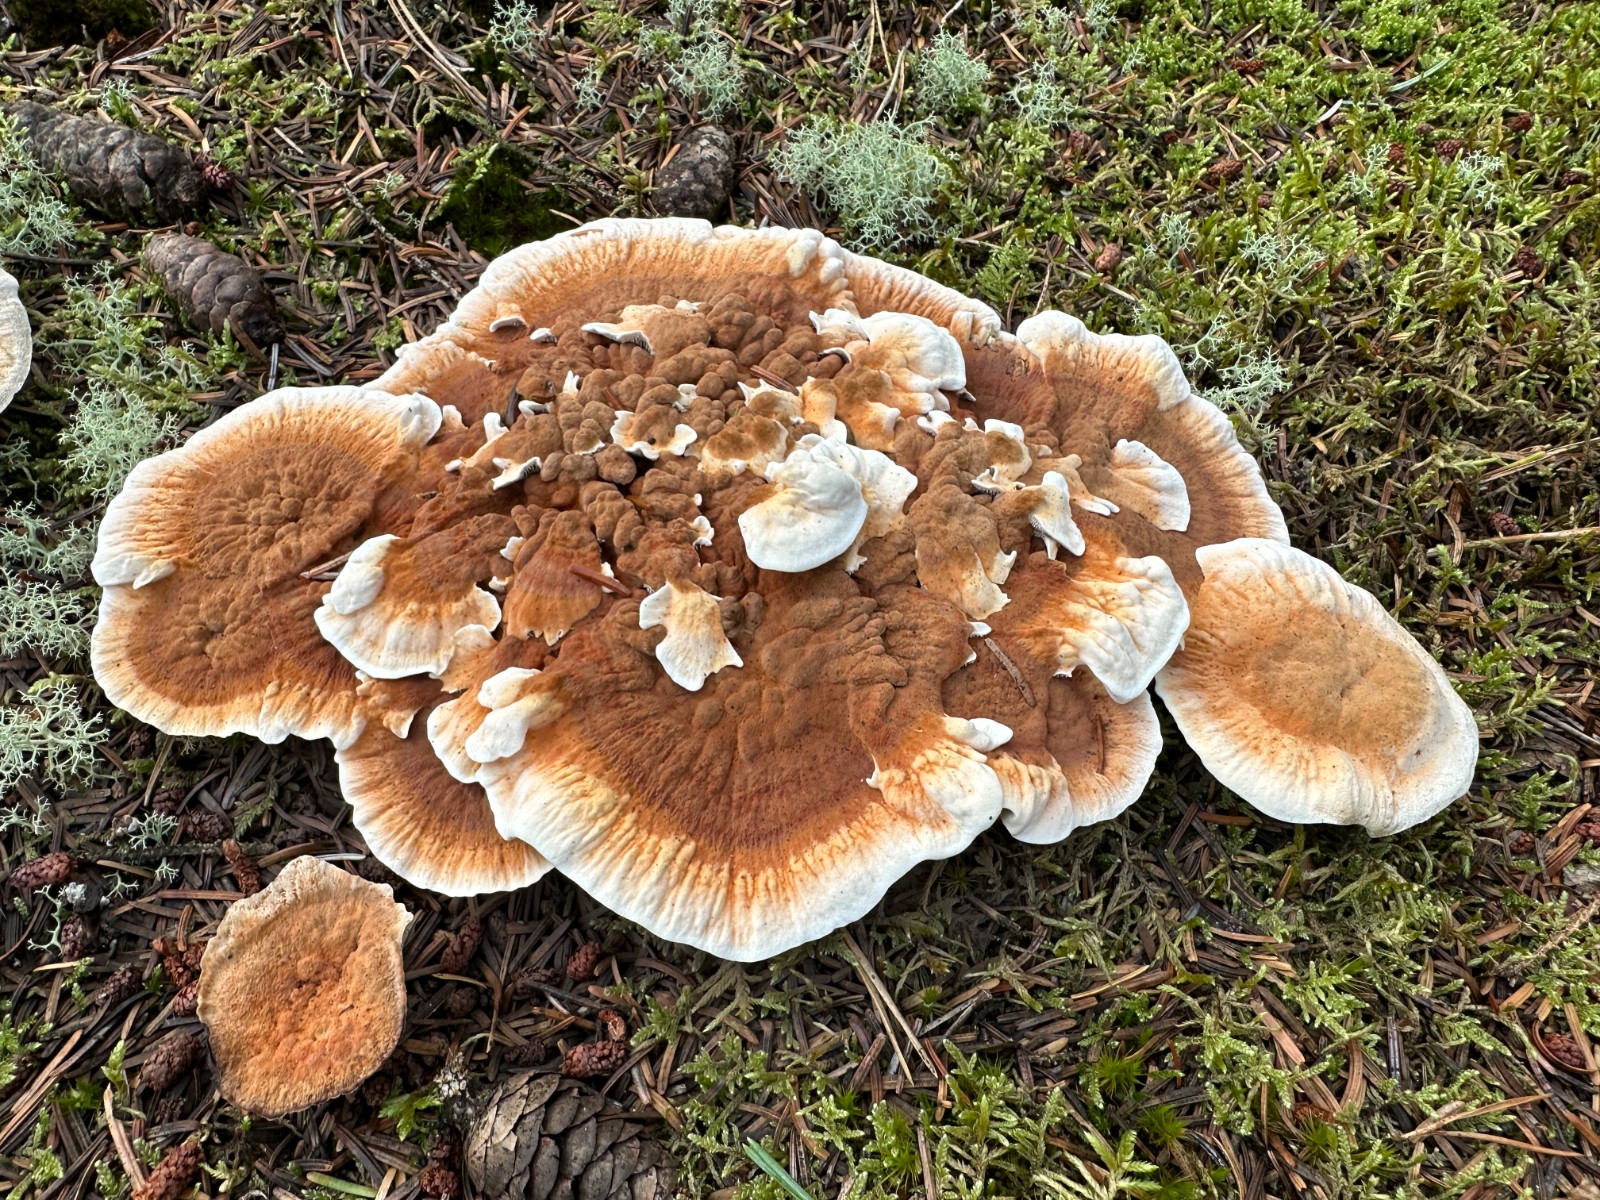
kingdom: Fungi
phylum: Basidiomycota
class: Agaricomycetes
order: Thelephorales
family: Bankeraceae
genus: Hydnellum
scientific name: Hydnellum aurantiacum
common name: orange korkpigsvamp
